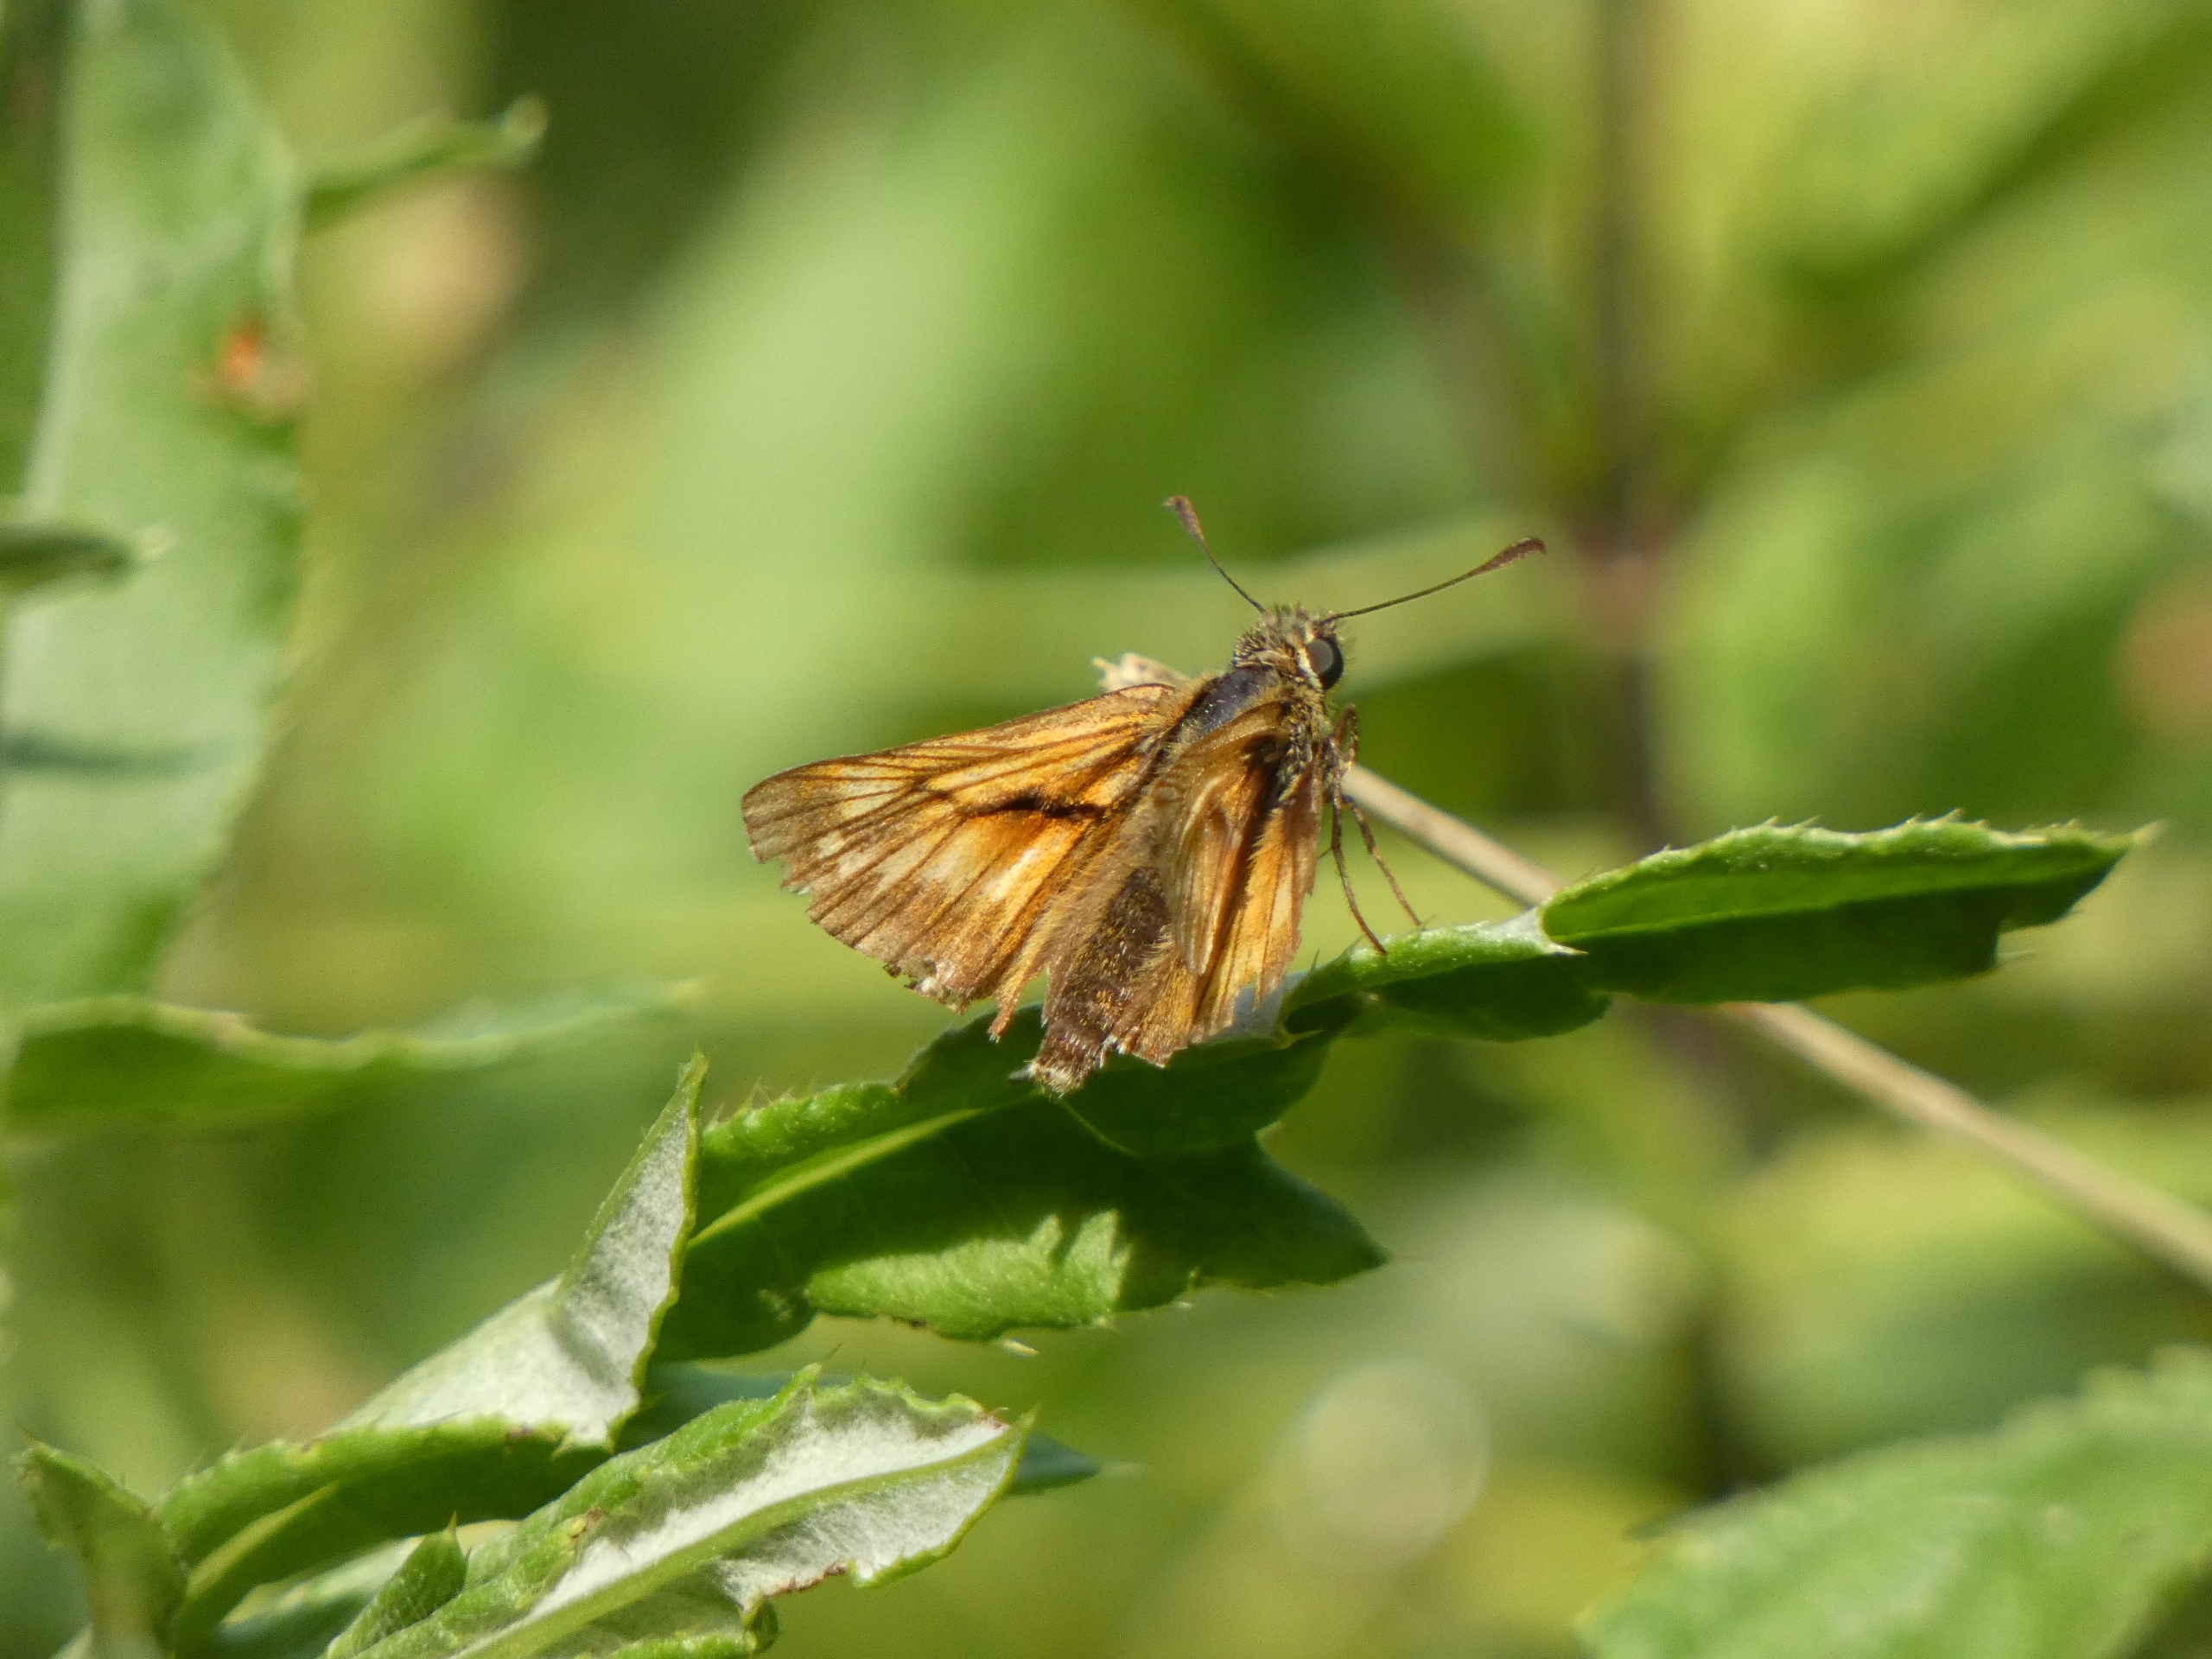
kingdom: Animalia
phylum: Arthropoda
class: Insecta
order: Lepidoptera
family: Hesperiidae
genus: Ochlodes
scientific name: Ochlodes venata
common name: Stor bredpande
